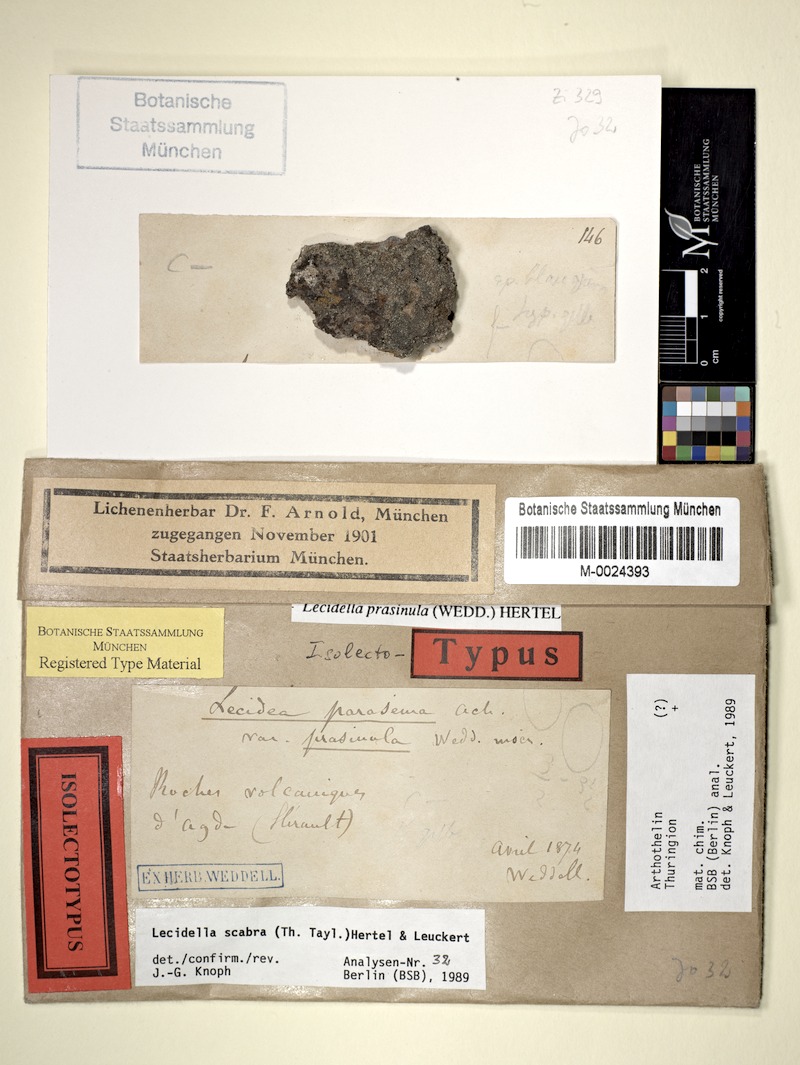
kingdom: Fungi
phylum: Ascomycota
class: Lecanoromycetes
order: Lecanorales
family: Lecanoraceae
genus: Lecidella
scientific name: Lecidella scabra
